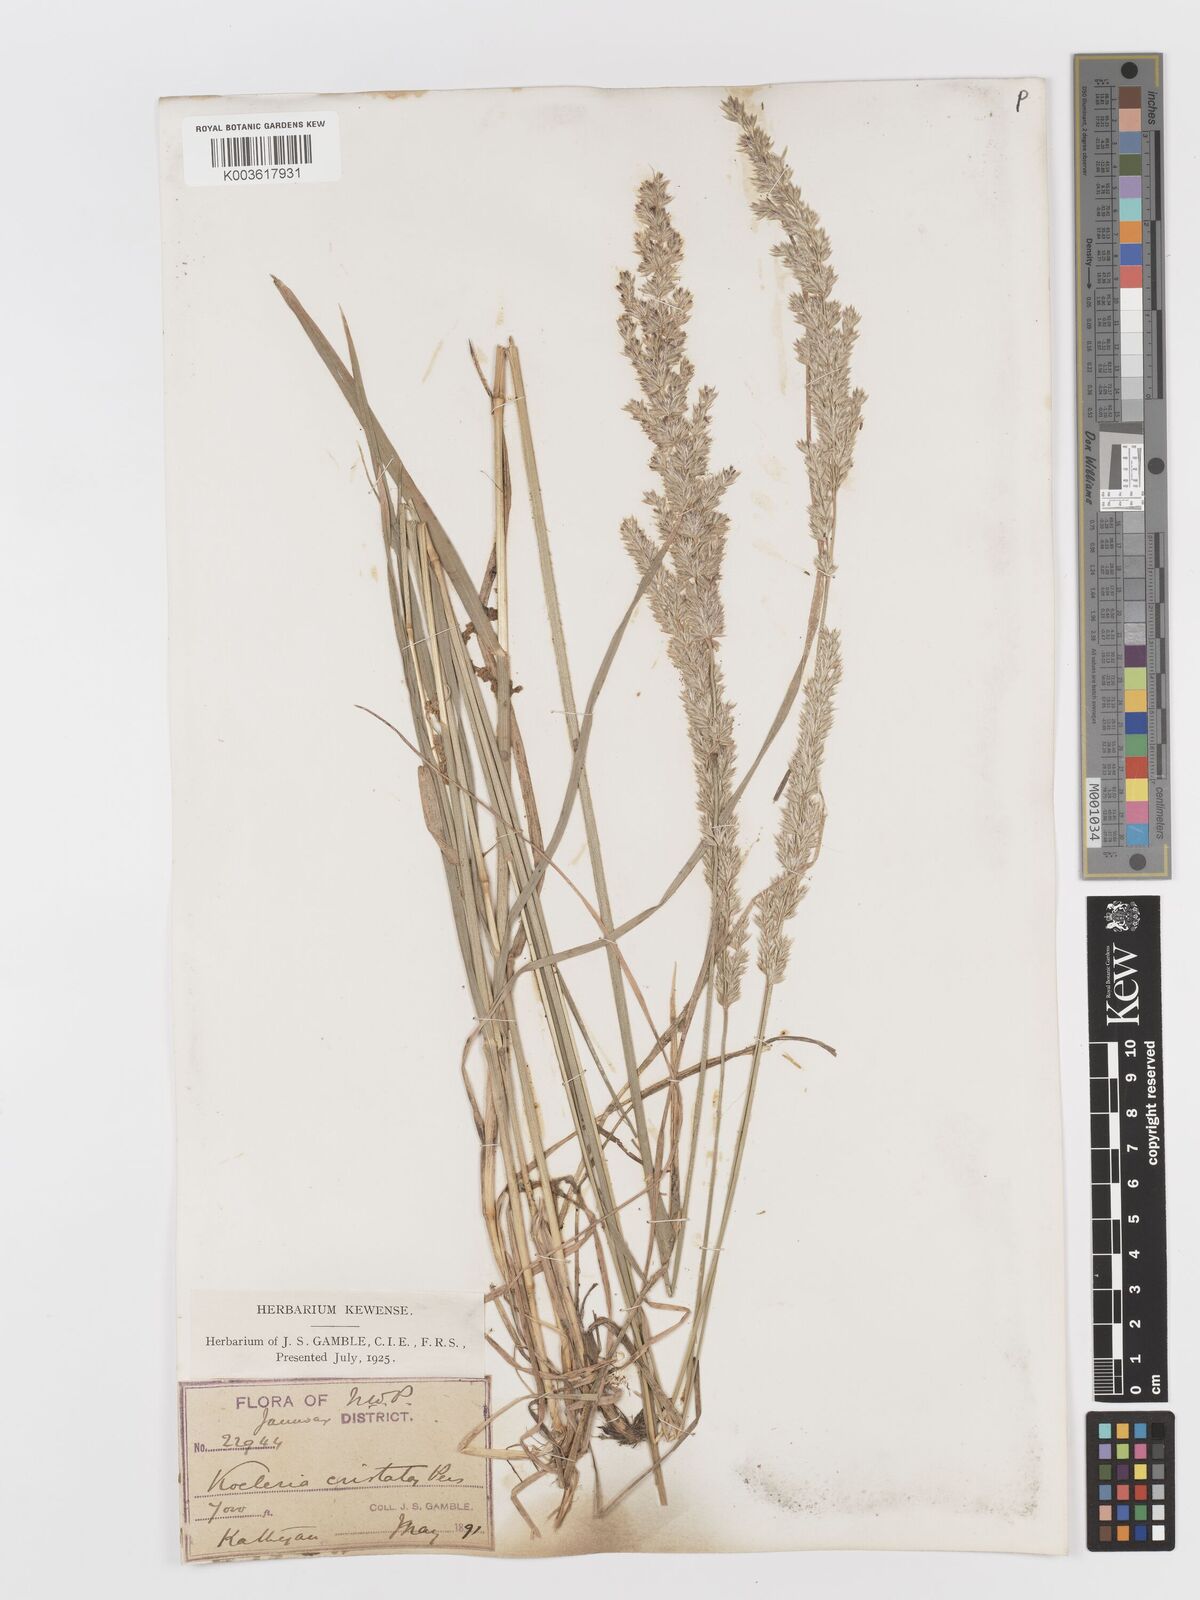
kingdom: Plantae
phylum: Tracheophyta
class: Liliopsida
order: Poales
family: Poaceae
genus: Koeleria
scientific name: Koeleria
